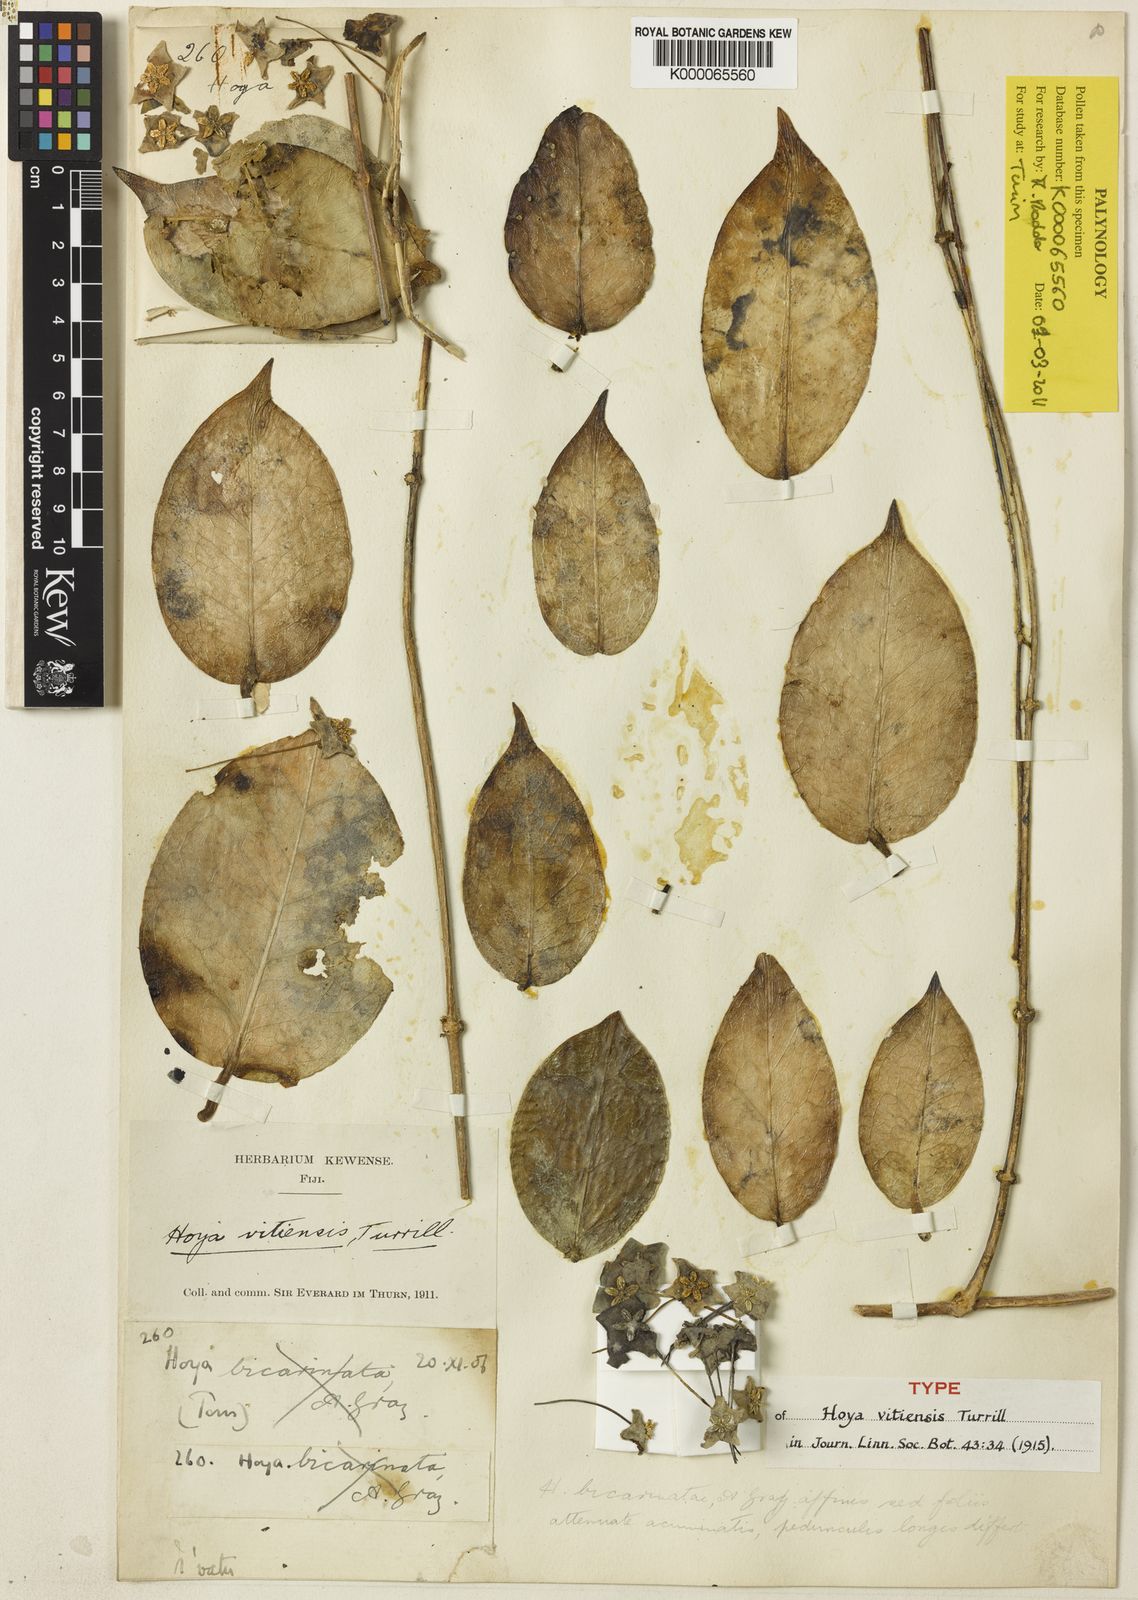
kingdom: Plantae
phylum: Tracheophyta
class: Magnoliopsida
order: Gentianales
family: Apocynaceae
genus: Hoya
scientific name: Hoya vitiensis
